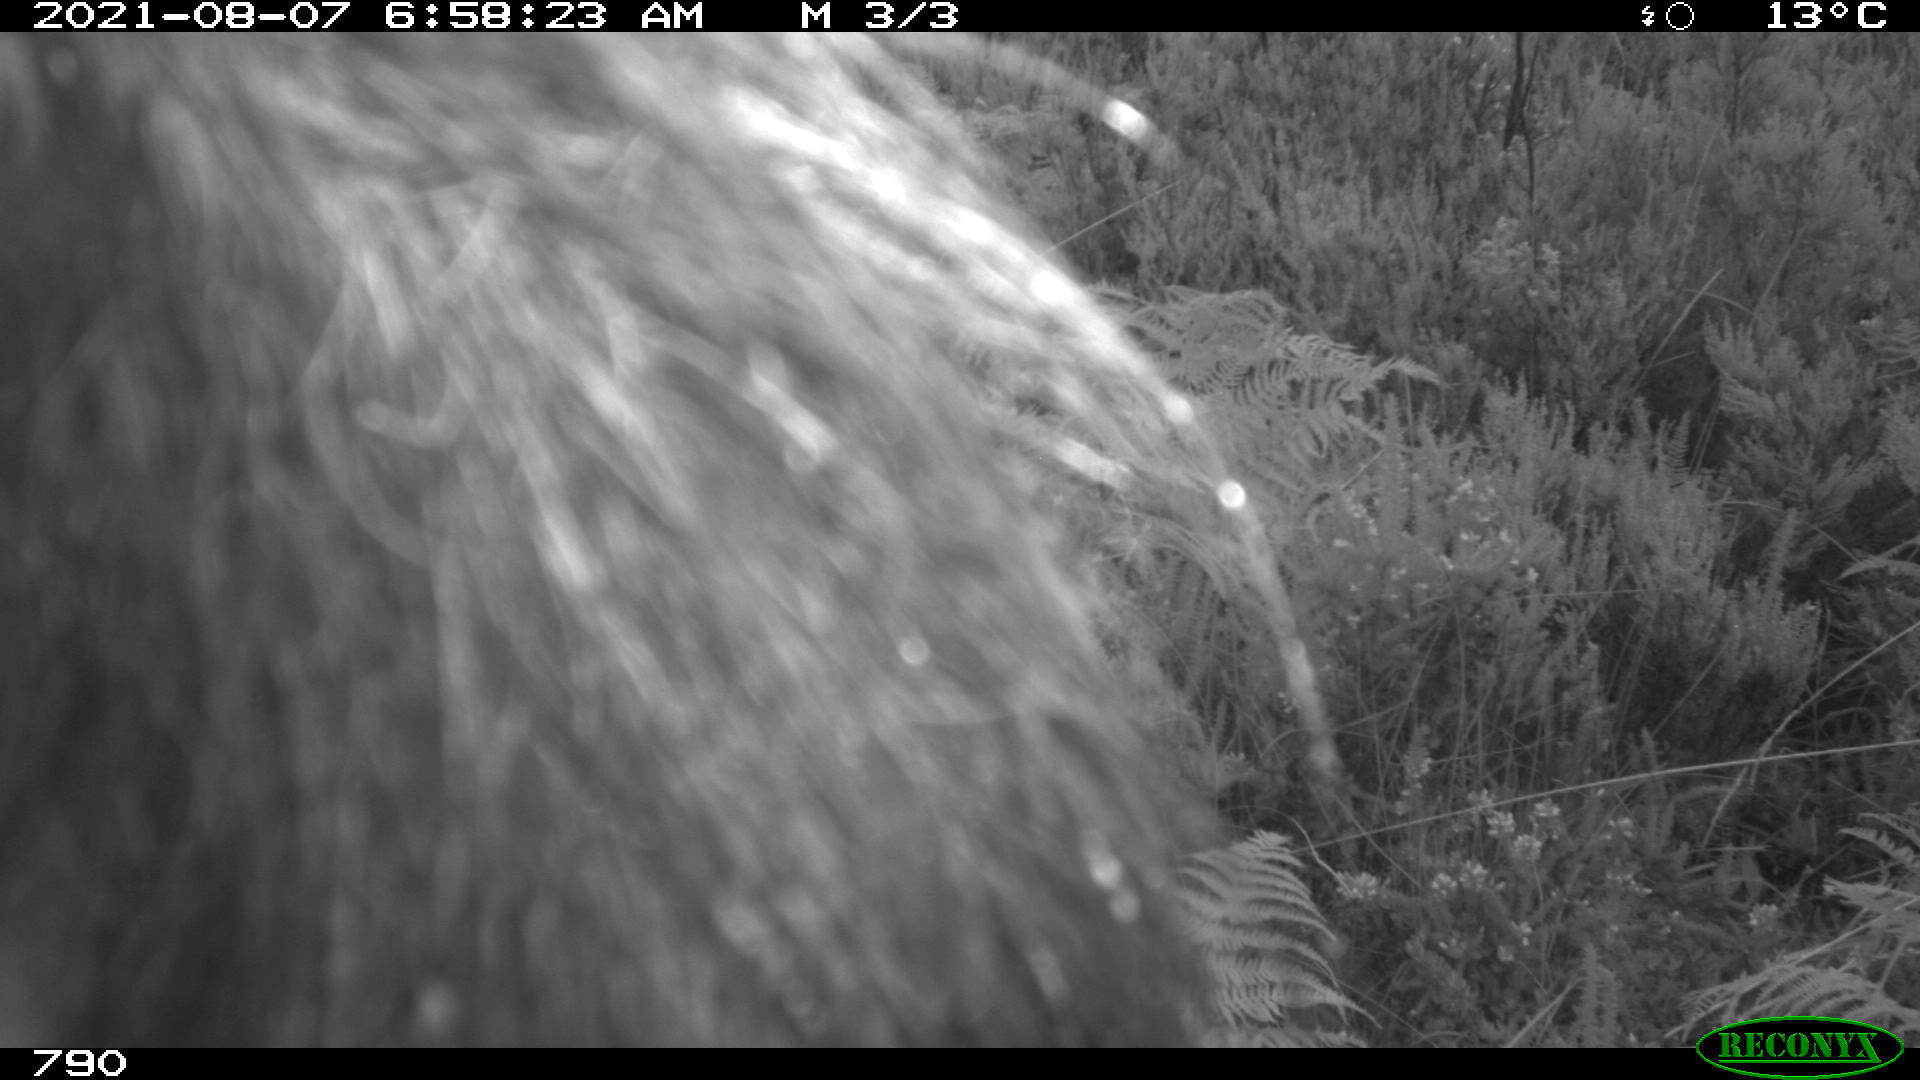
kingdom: Animalia
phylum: Chordata
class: Mammalia
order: Perissodactyla
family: Equidae
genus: Equus
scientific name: Equus caballus
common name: Horse
